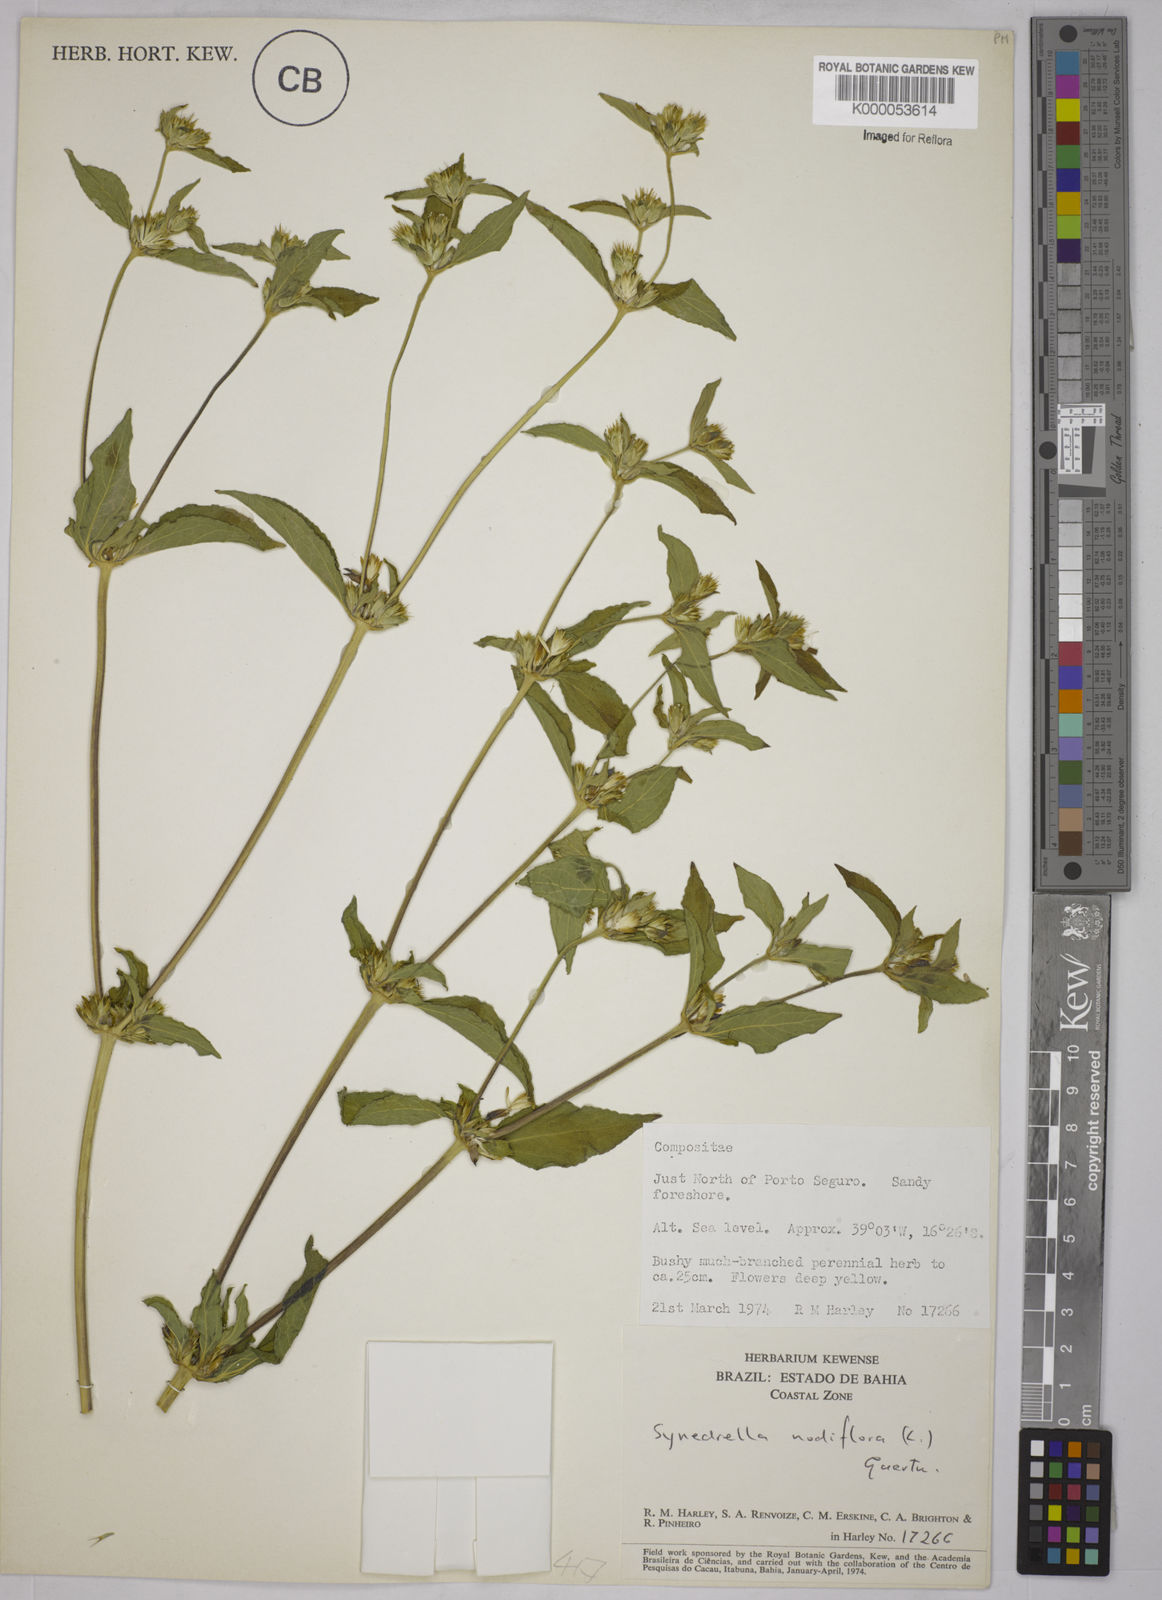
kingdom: Plantae
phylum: Tracheophyta
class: Magnoliopsida
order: Asterales
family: Asteraceae
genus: Synedrella
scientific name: Synedrella nodiflora
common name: Nodeweed
